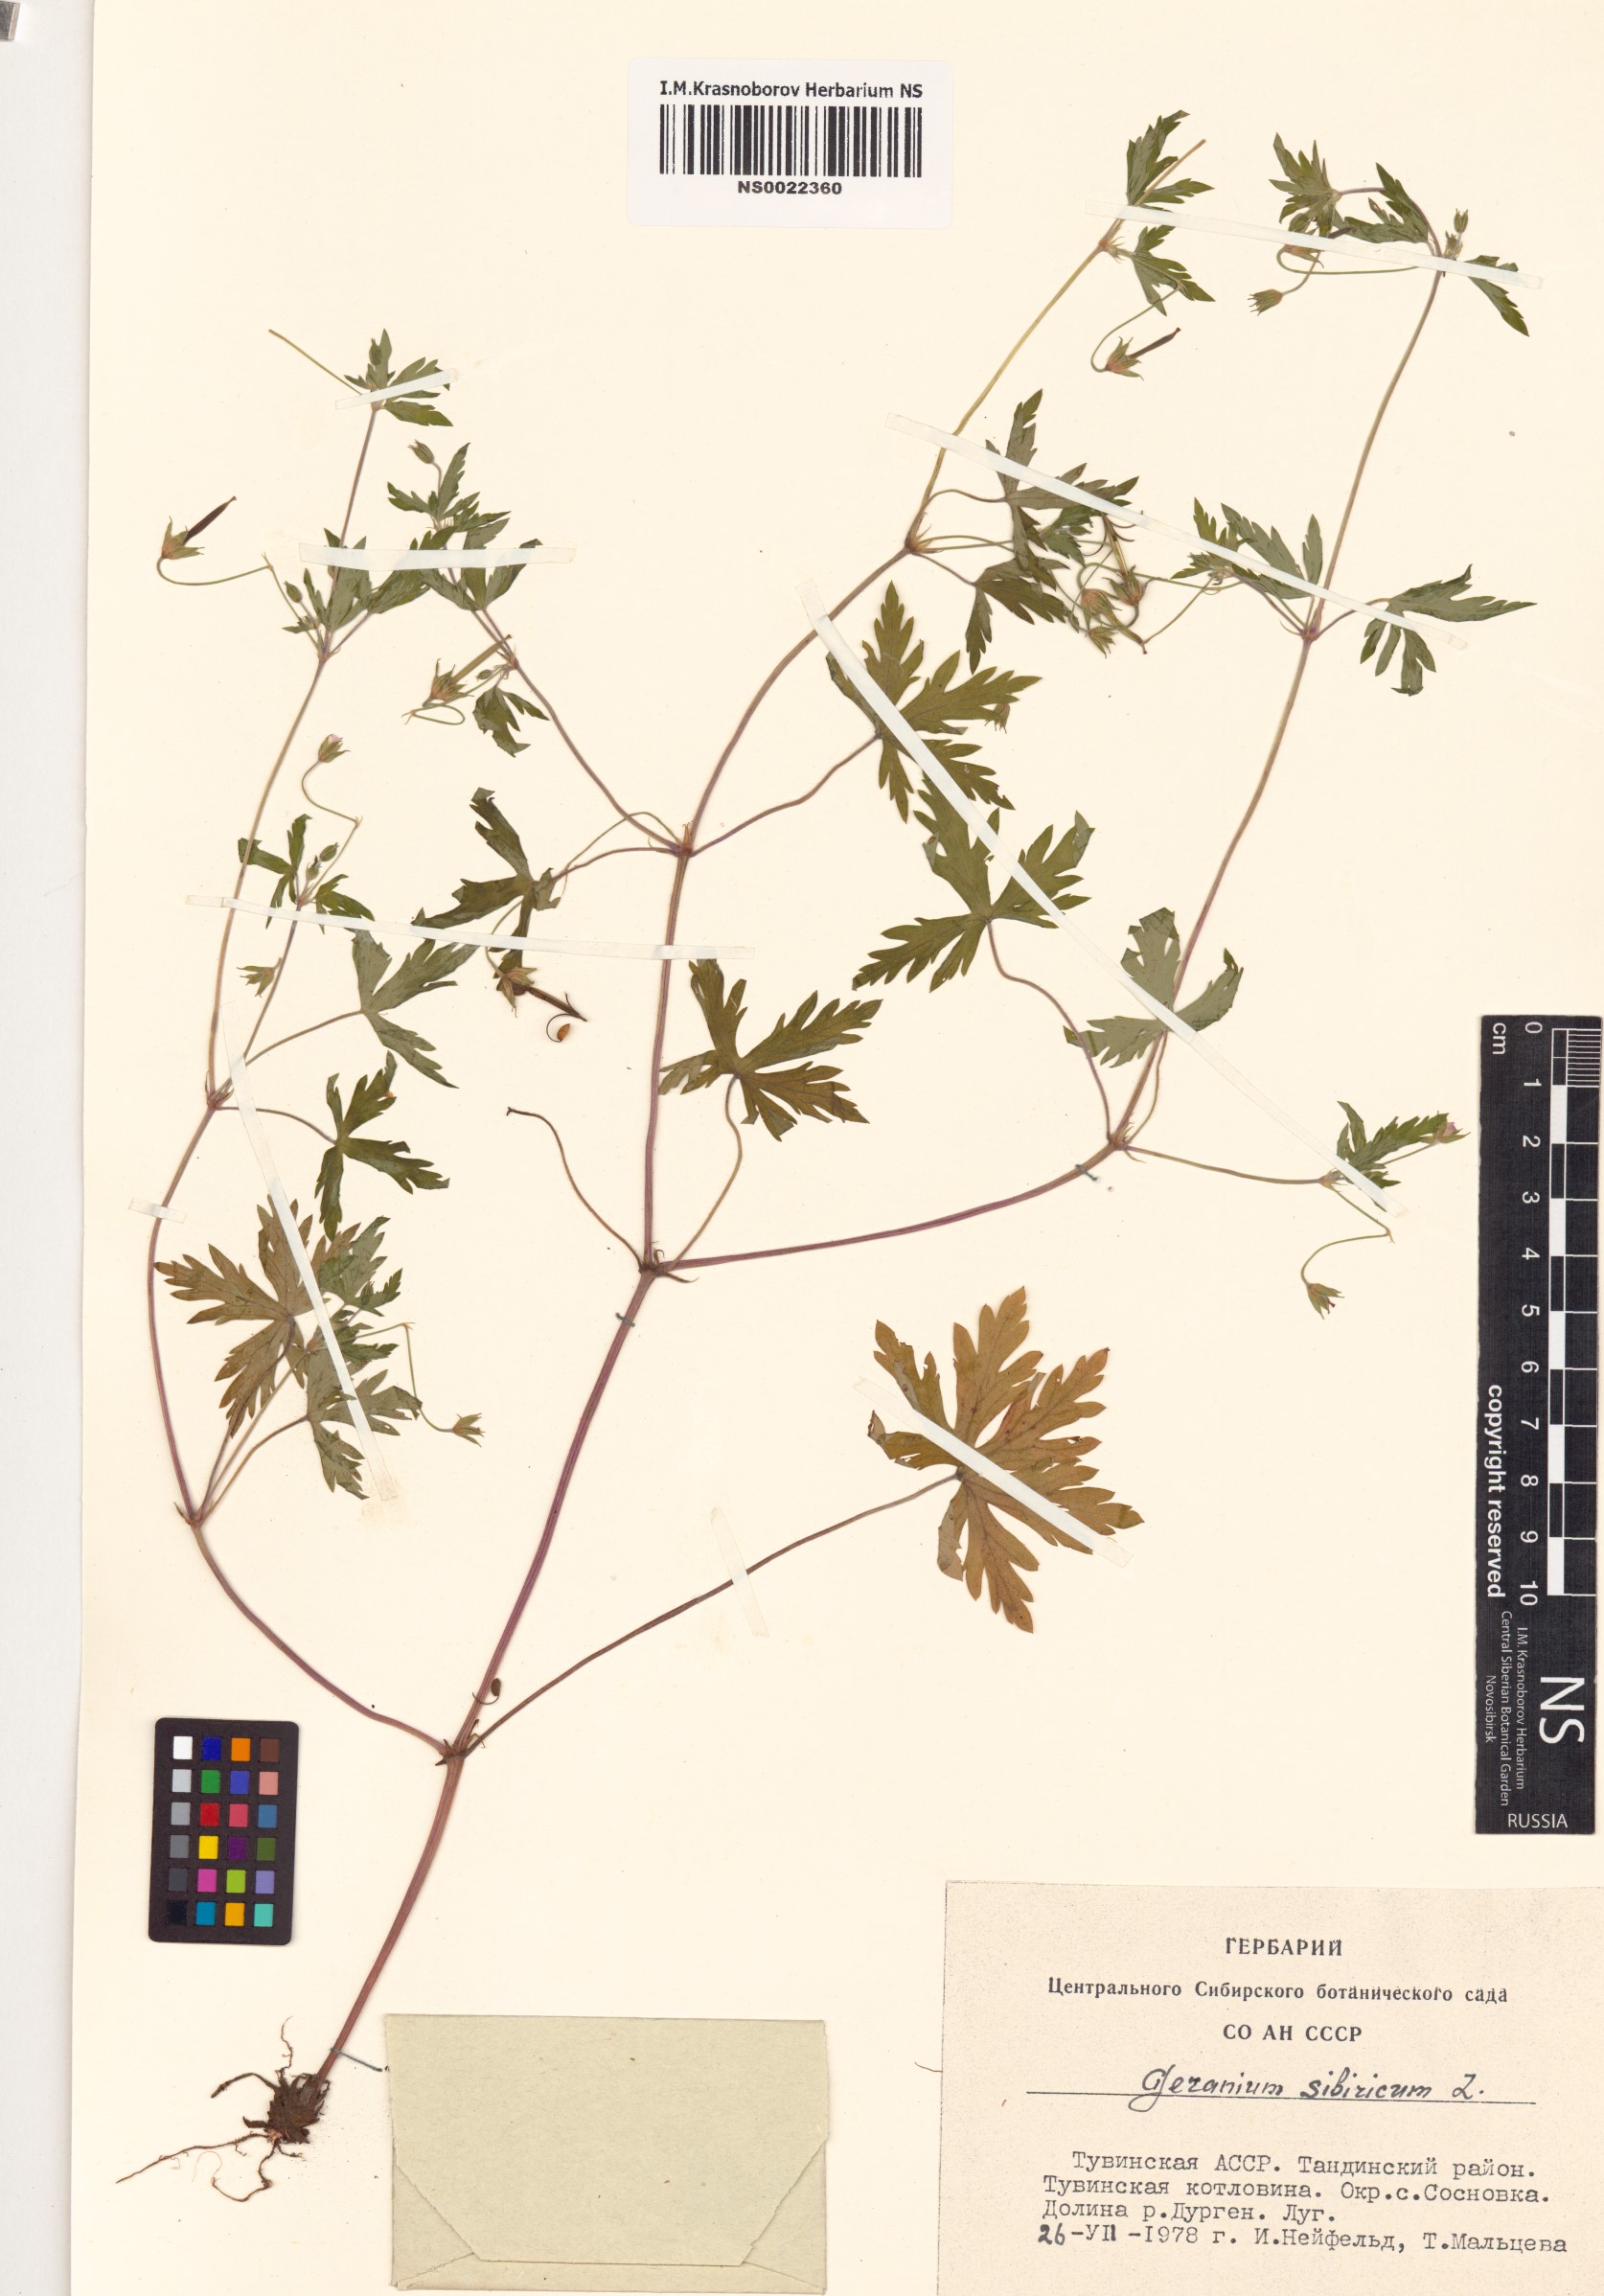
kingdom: Plantae
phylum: Tracheophyta
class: Magnoliopsida
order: Geraniales
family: Geraniaceae
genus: Geranium
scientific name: Geranium sibiricum
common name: Siberian crane's-bill
